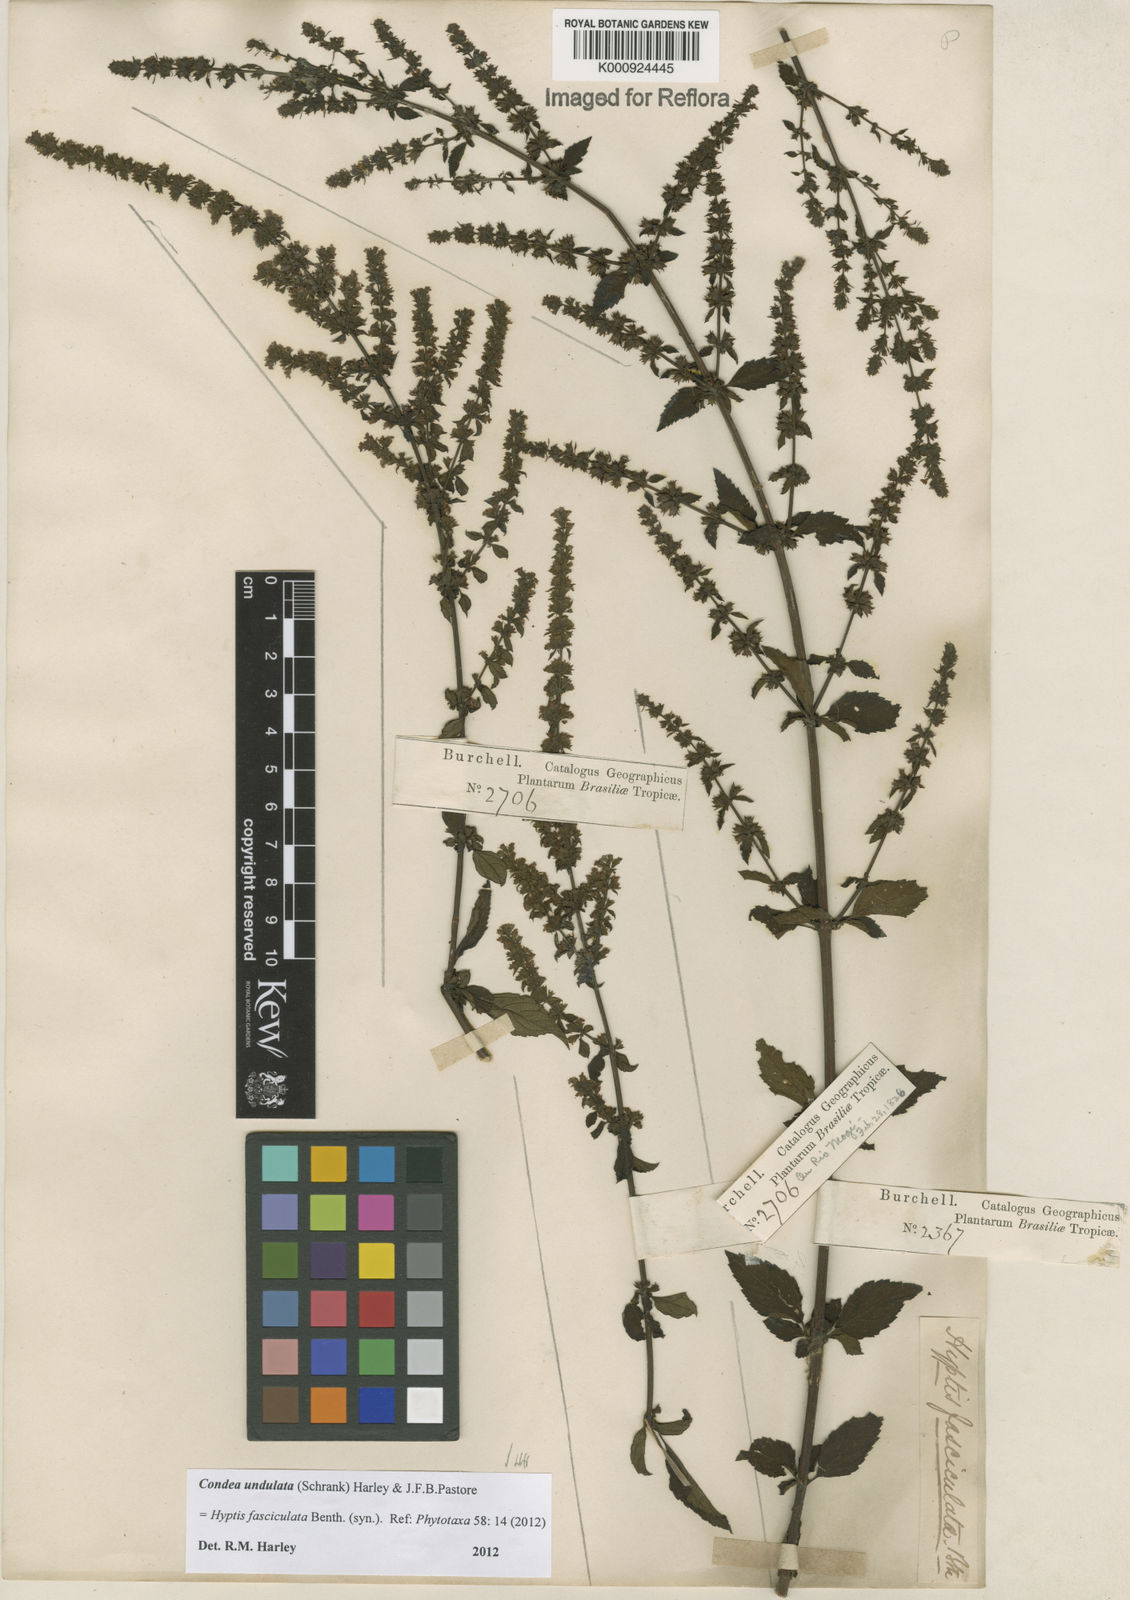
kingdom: Plantae
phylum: Tracheophyta
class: Magnoliopsida
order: Lamiales
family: Lamiaceae
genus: Condea
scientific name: Condea undulata
